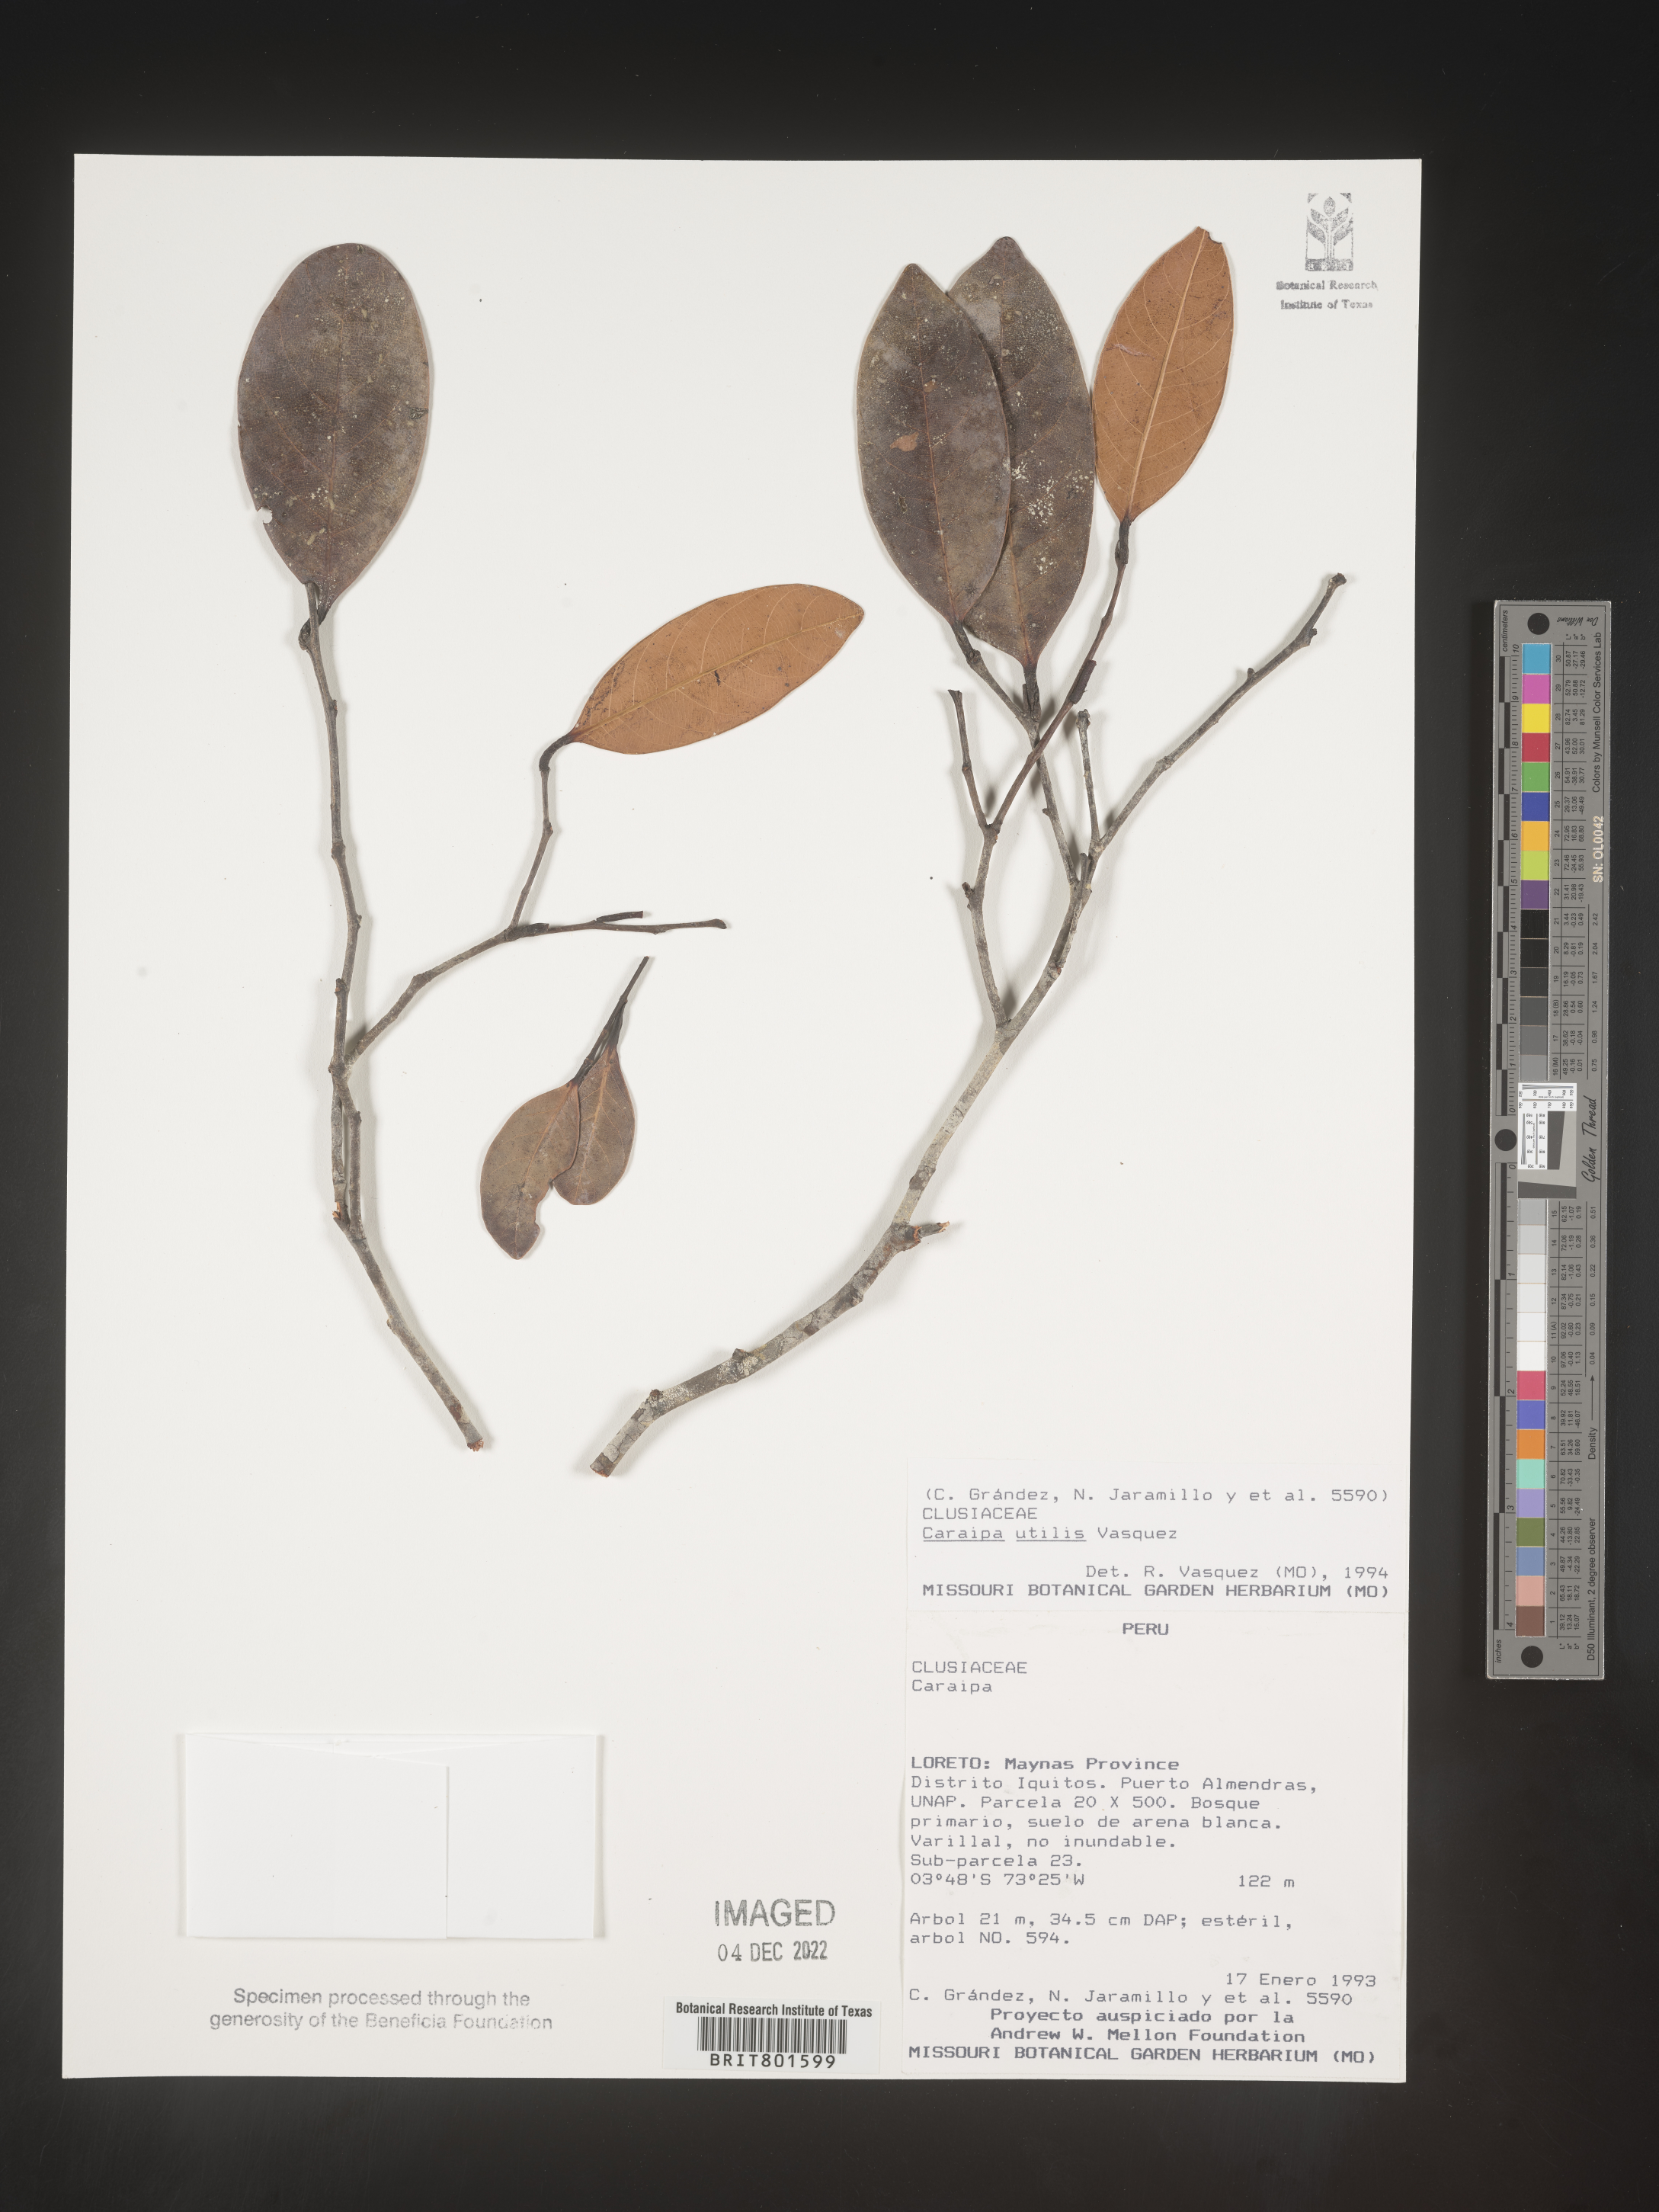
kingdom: Plantae
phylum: Tracheophyta
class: Magnoliopsida
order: Malpighiales
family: Calophyllaceae
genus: Caraipa
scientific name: Caraipa utilis
